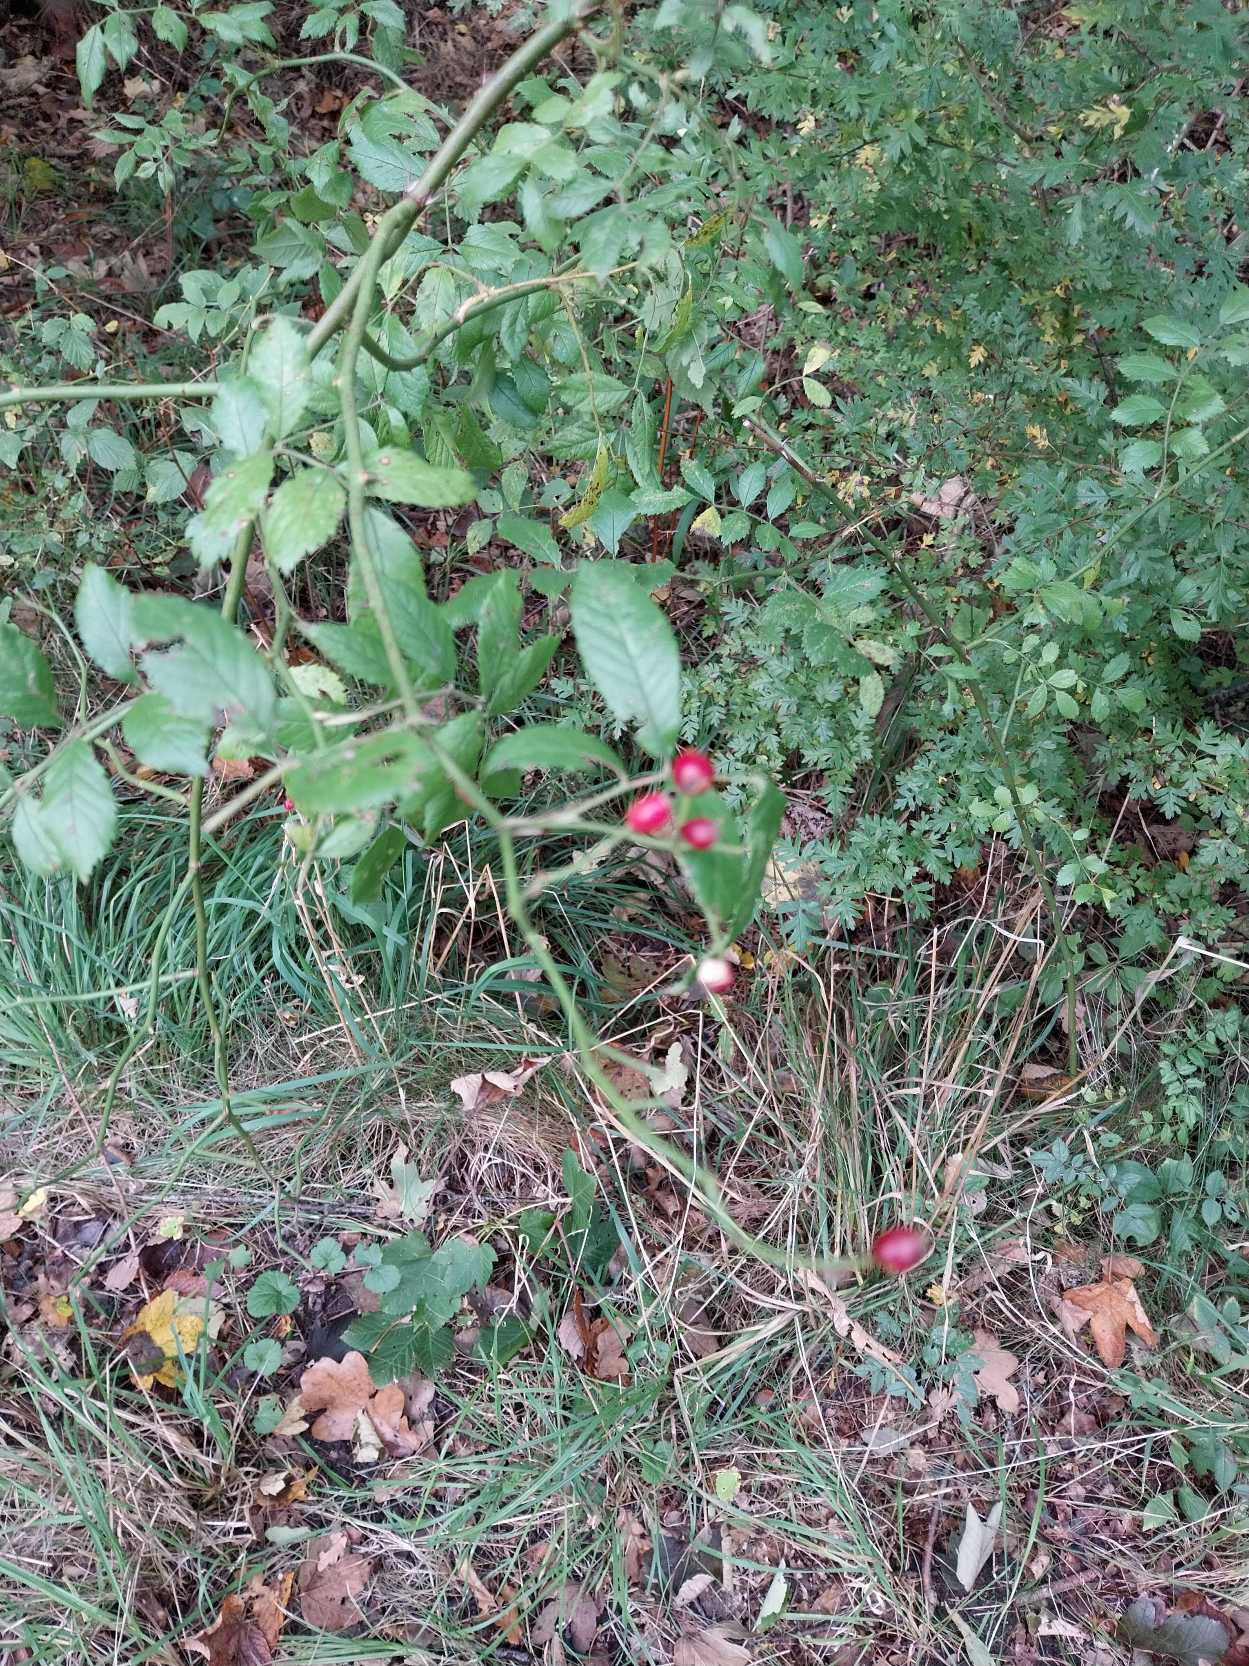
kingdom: Plantae
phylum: Tracheophyta
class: Magnoliopsida
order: Rosales
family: Rosaceae
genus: Rosa
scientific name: Rosa multiflora
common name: Mangeblomstret rose
